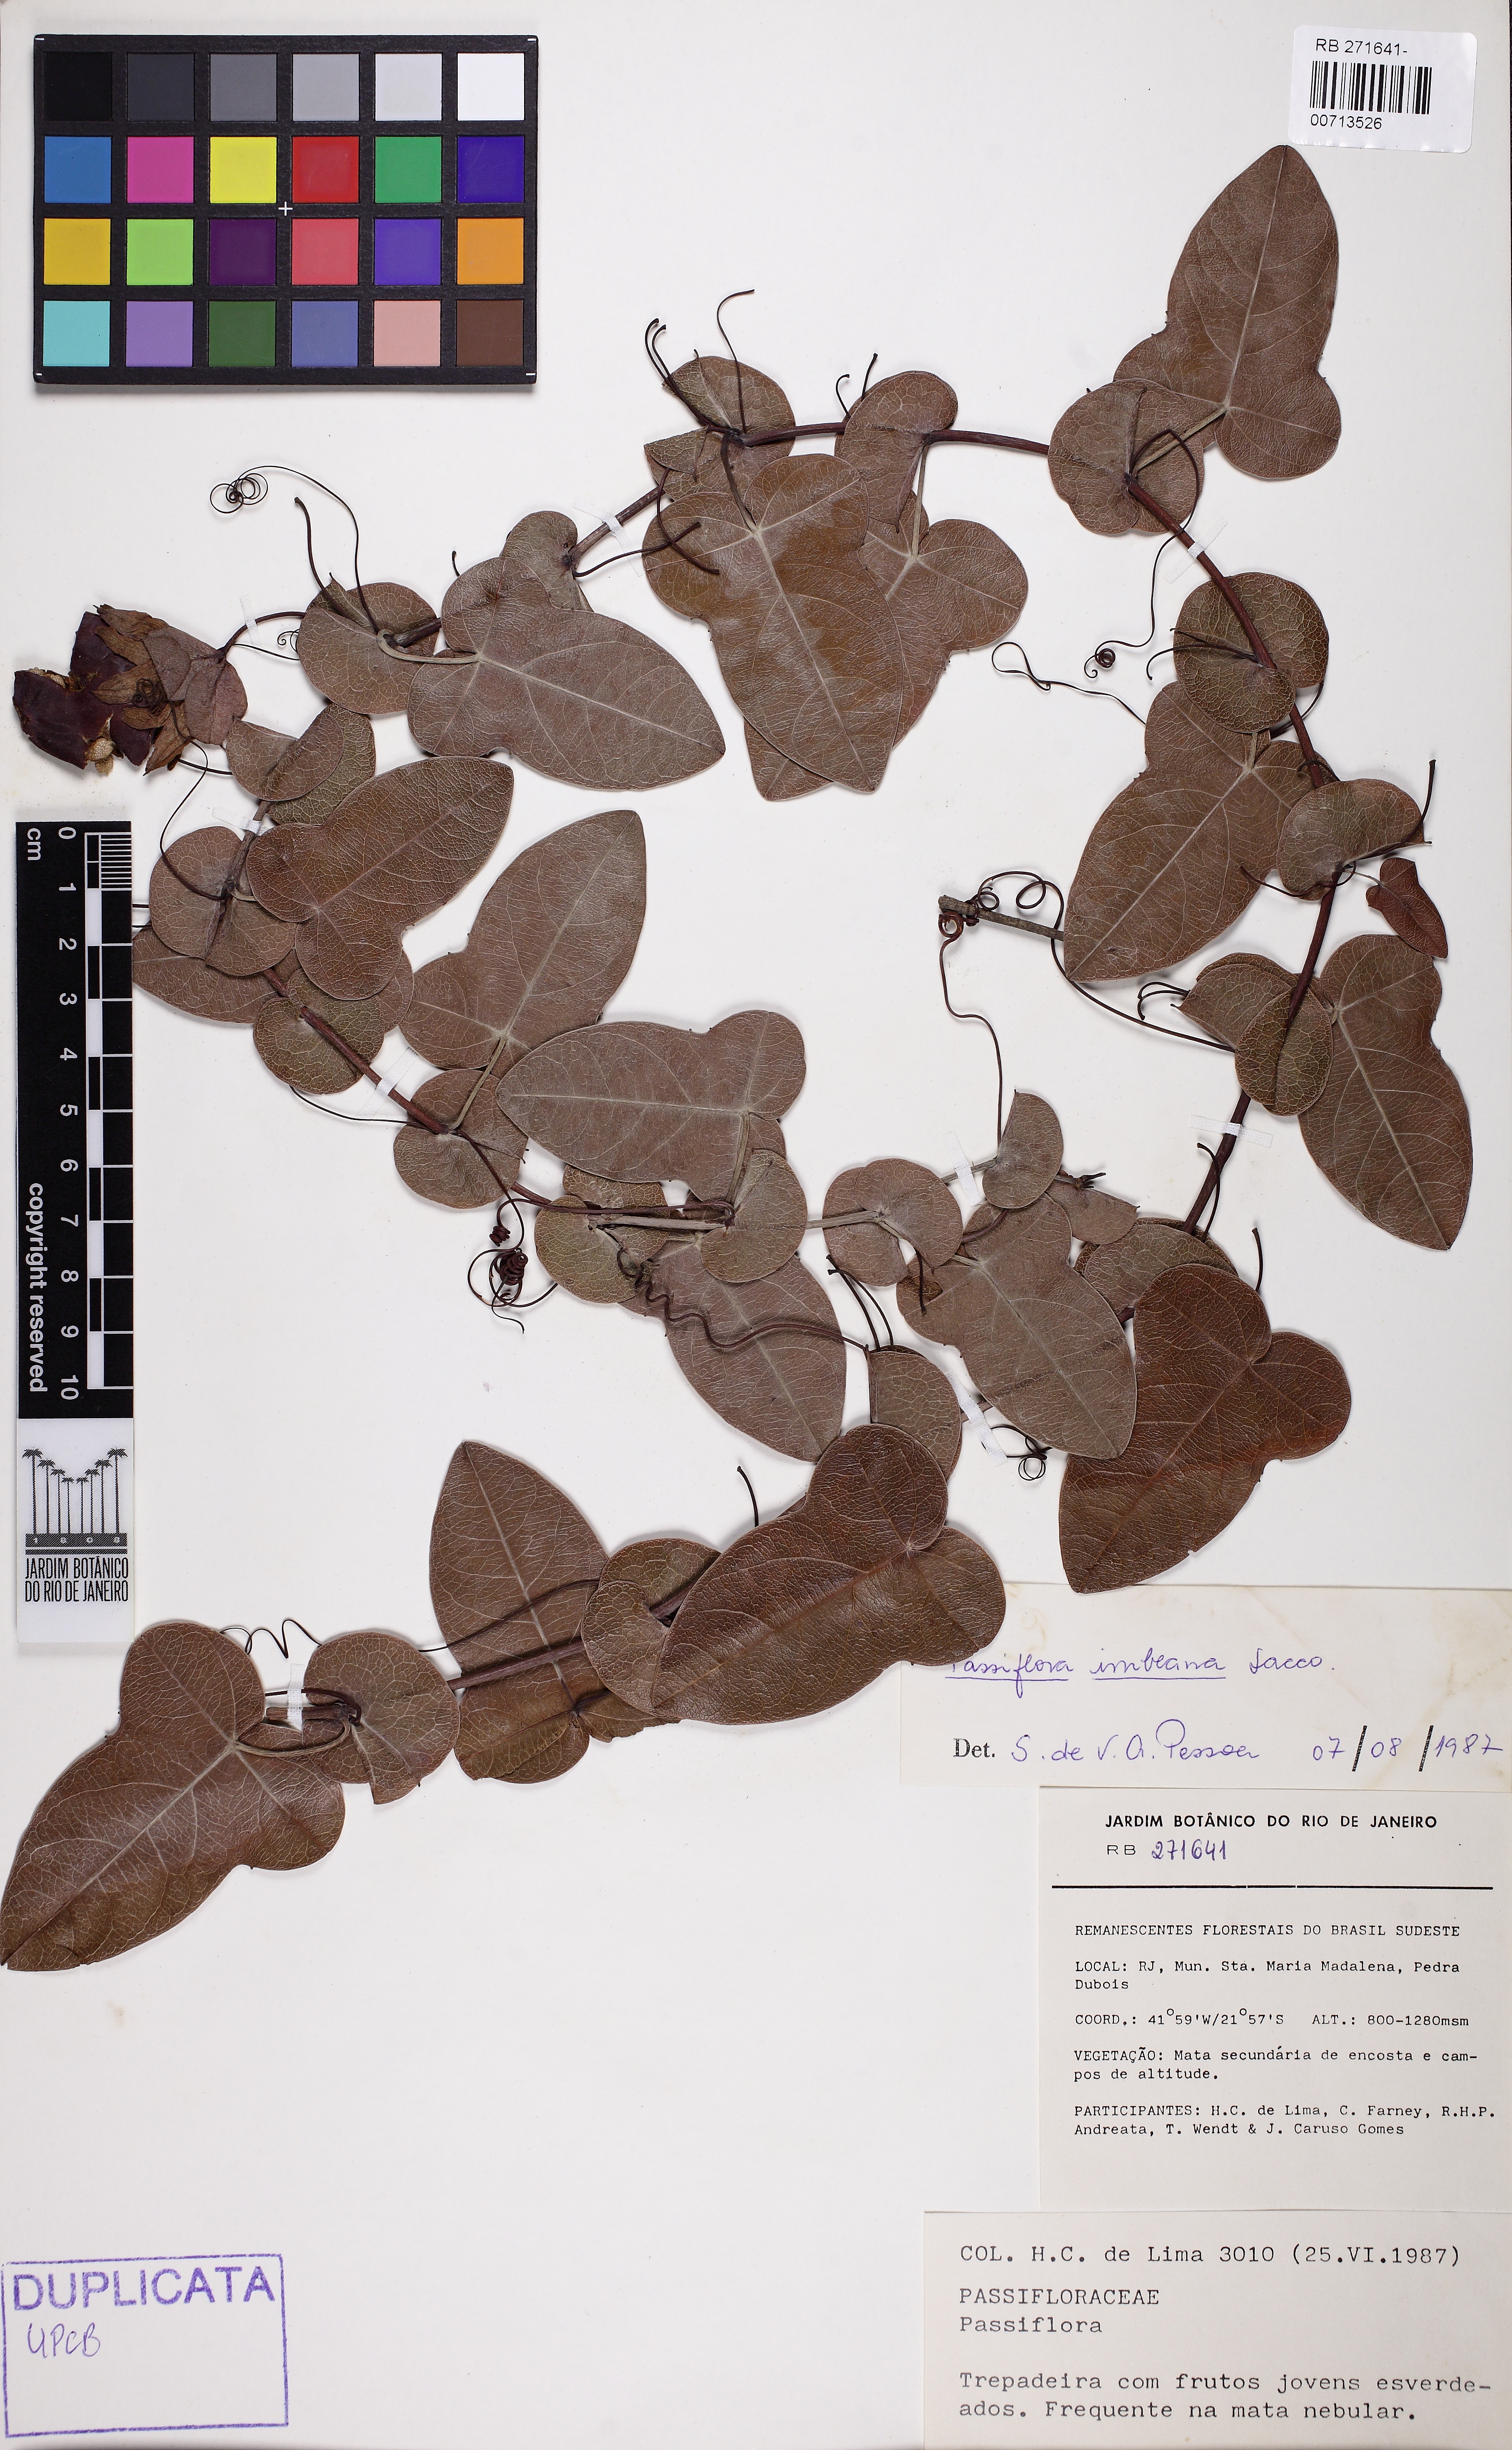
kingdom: Plantae
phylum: Tracheophyta
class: Magnoliopsida
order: Malpighiales
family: Passifloraceae
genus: Passiflora
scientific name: Passiflora imbeana
